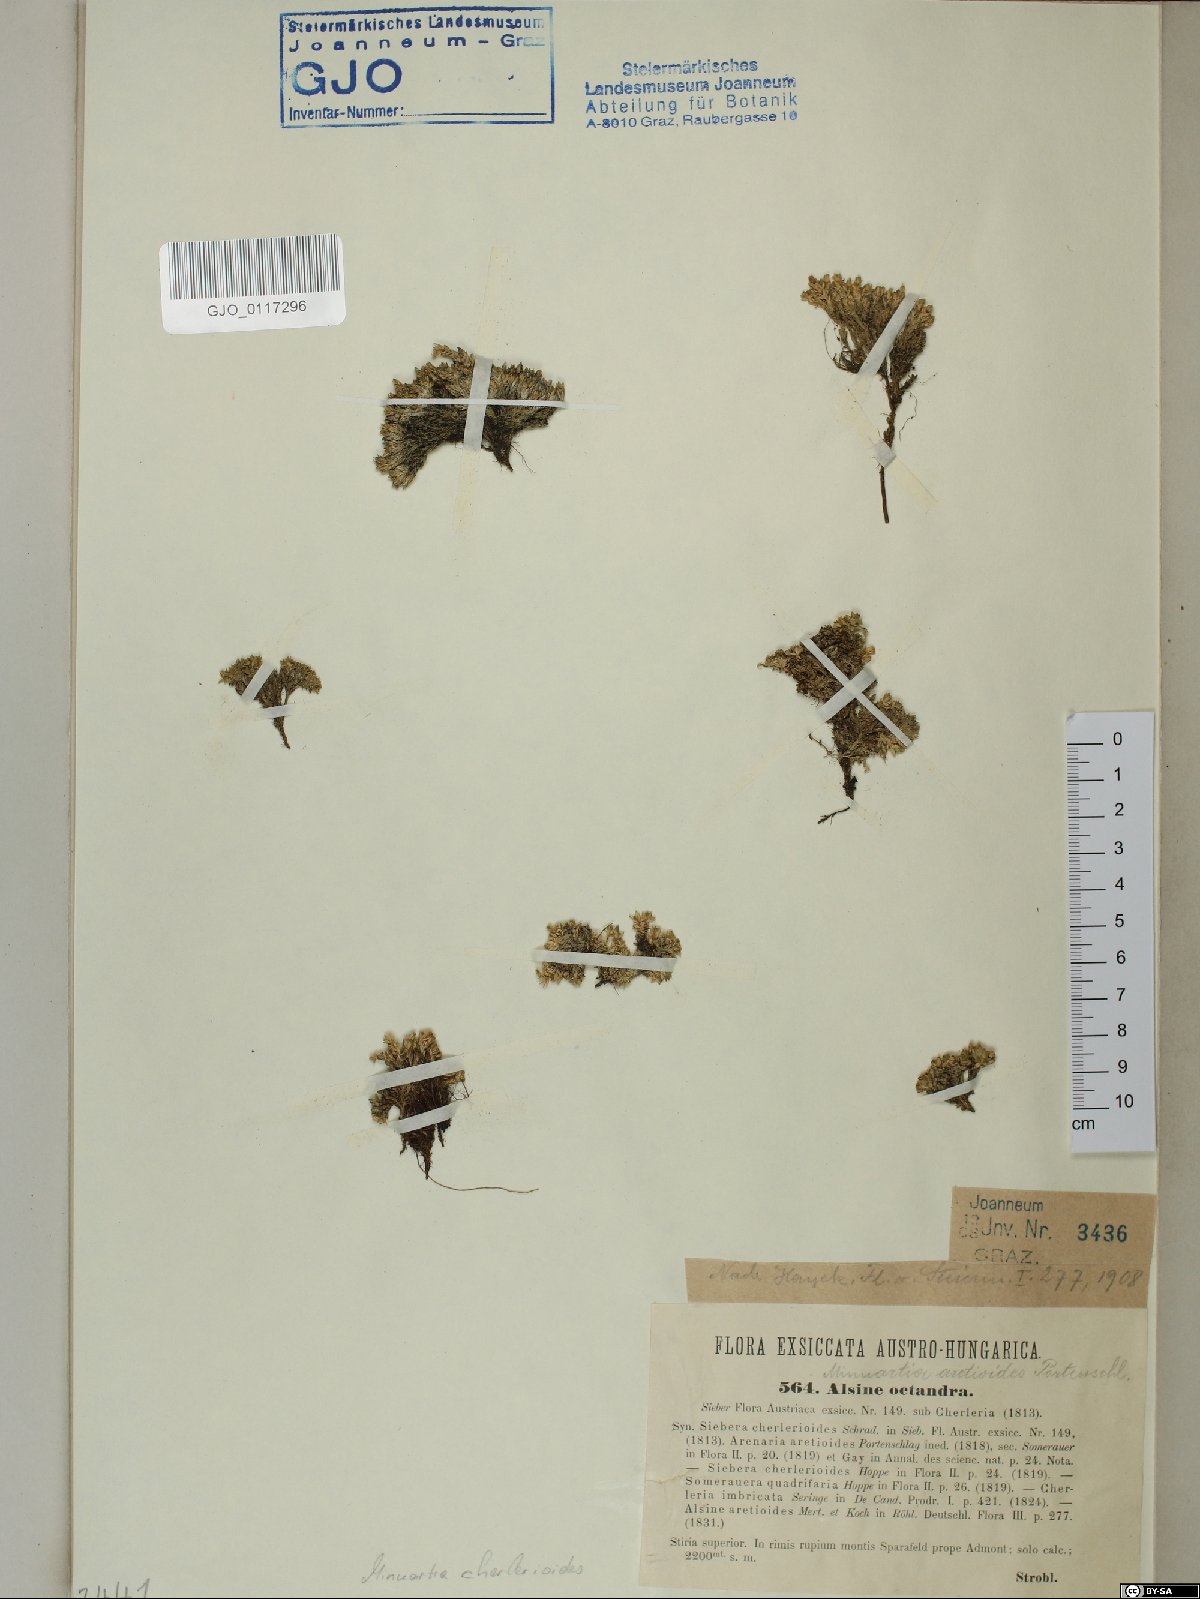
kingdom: Plantae
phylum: Tracheophyta
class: Magnoliopsida
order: Caryophyllales
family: Caryophyllaceae
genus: Facchinia
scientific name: Facchinia cherlerioides
